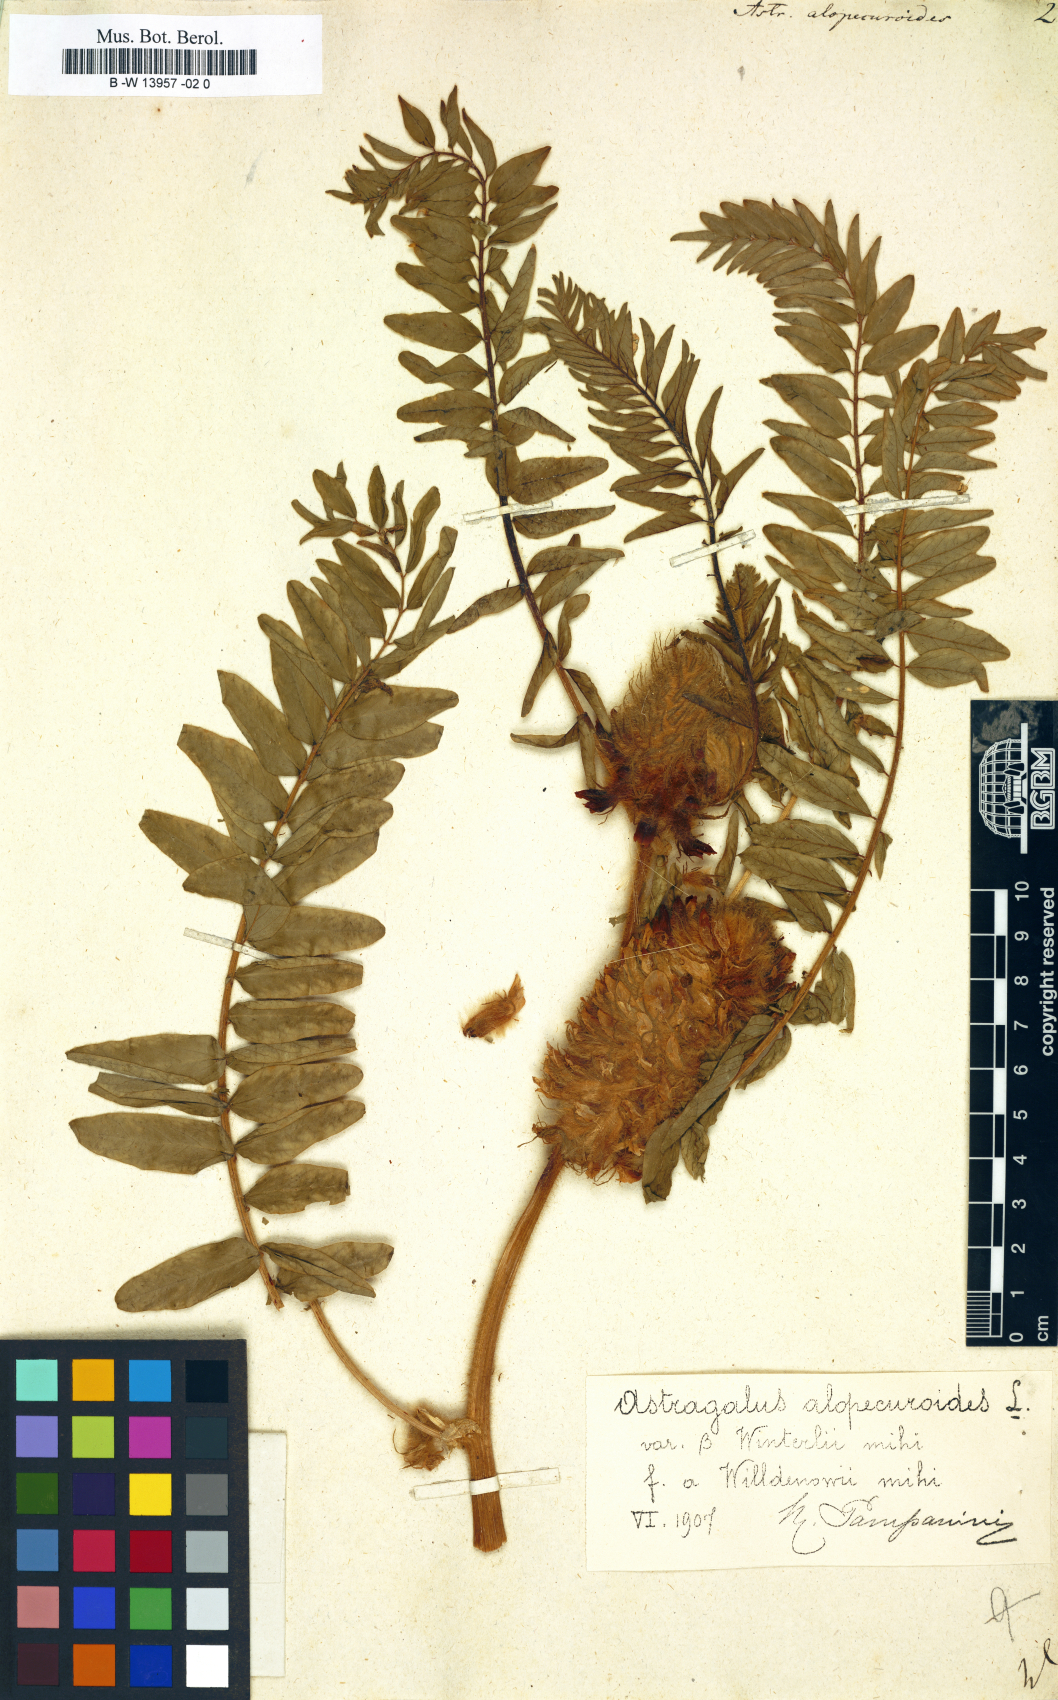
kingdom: Plantae
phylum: Tracheophyta
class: Magnoliopsida
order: Fabales
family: Fabaceae
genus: Astragalus
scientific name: Astragalus alopecuroides
